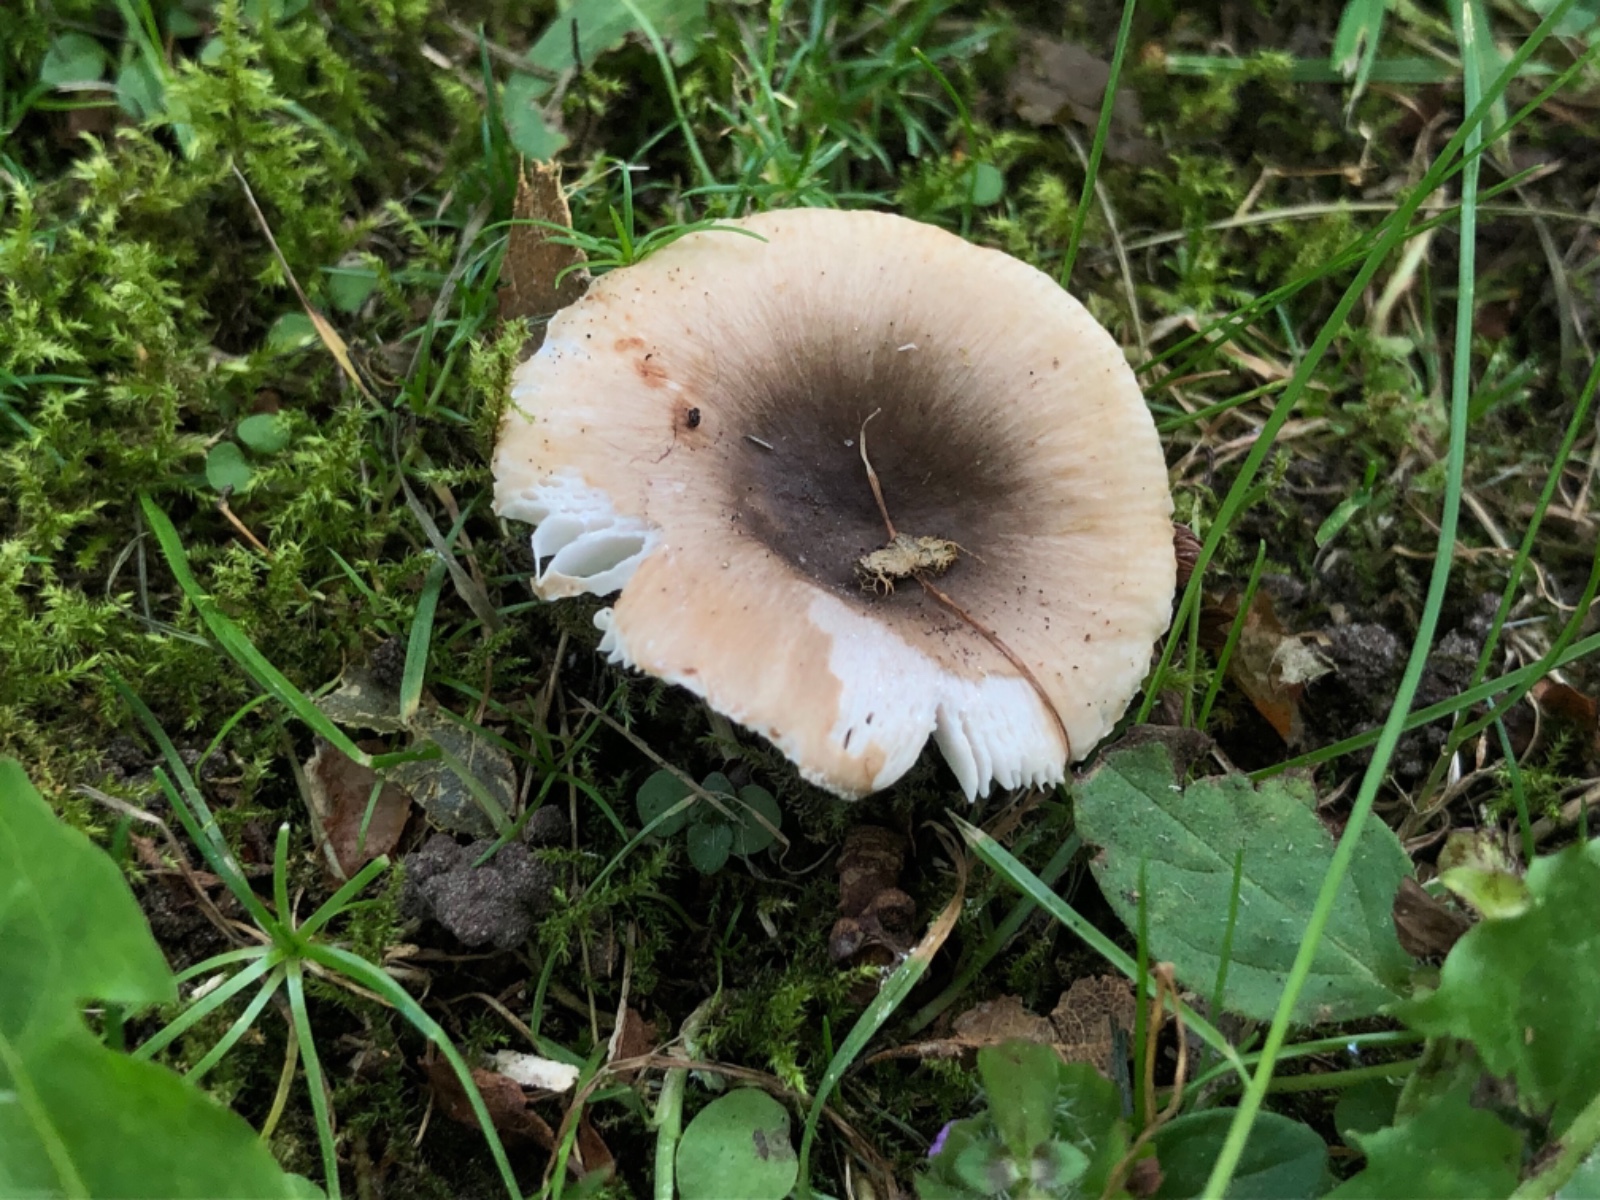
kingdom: Fungi
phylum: Basidiomycota
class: Agaricomycetes
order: Russulales
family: Russulaceae
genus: Russula
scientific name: Russula recondita
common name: mild kam-skørhat
